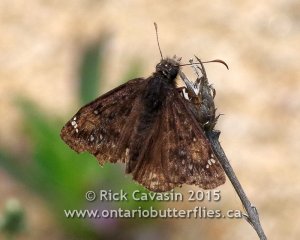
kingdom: Animalia
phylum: Arthropoda
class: Insecta
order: Lepidoptera
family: Hesperiidae
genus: Gesta
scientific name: Gesta
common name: Juvenal's Duskywing
